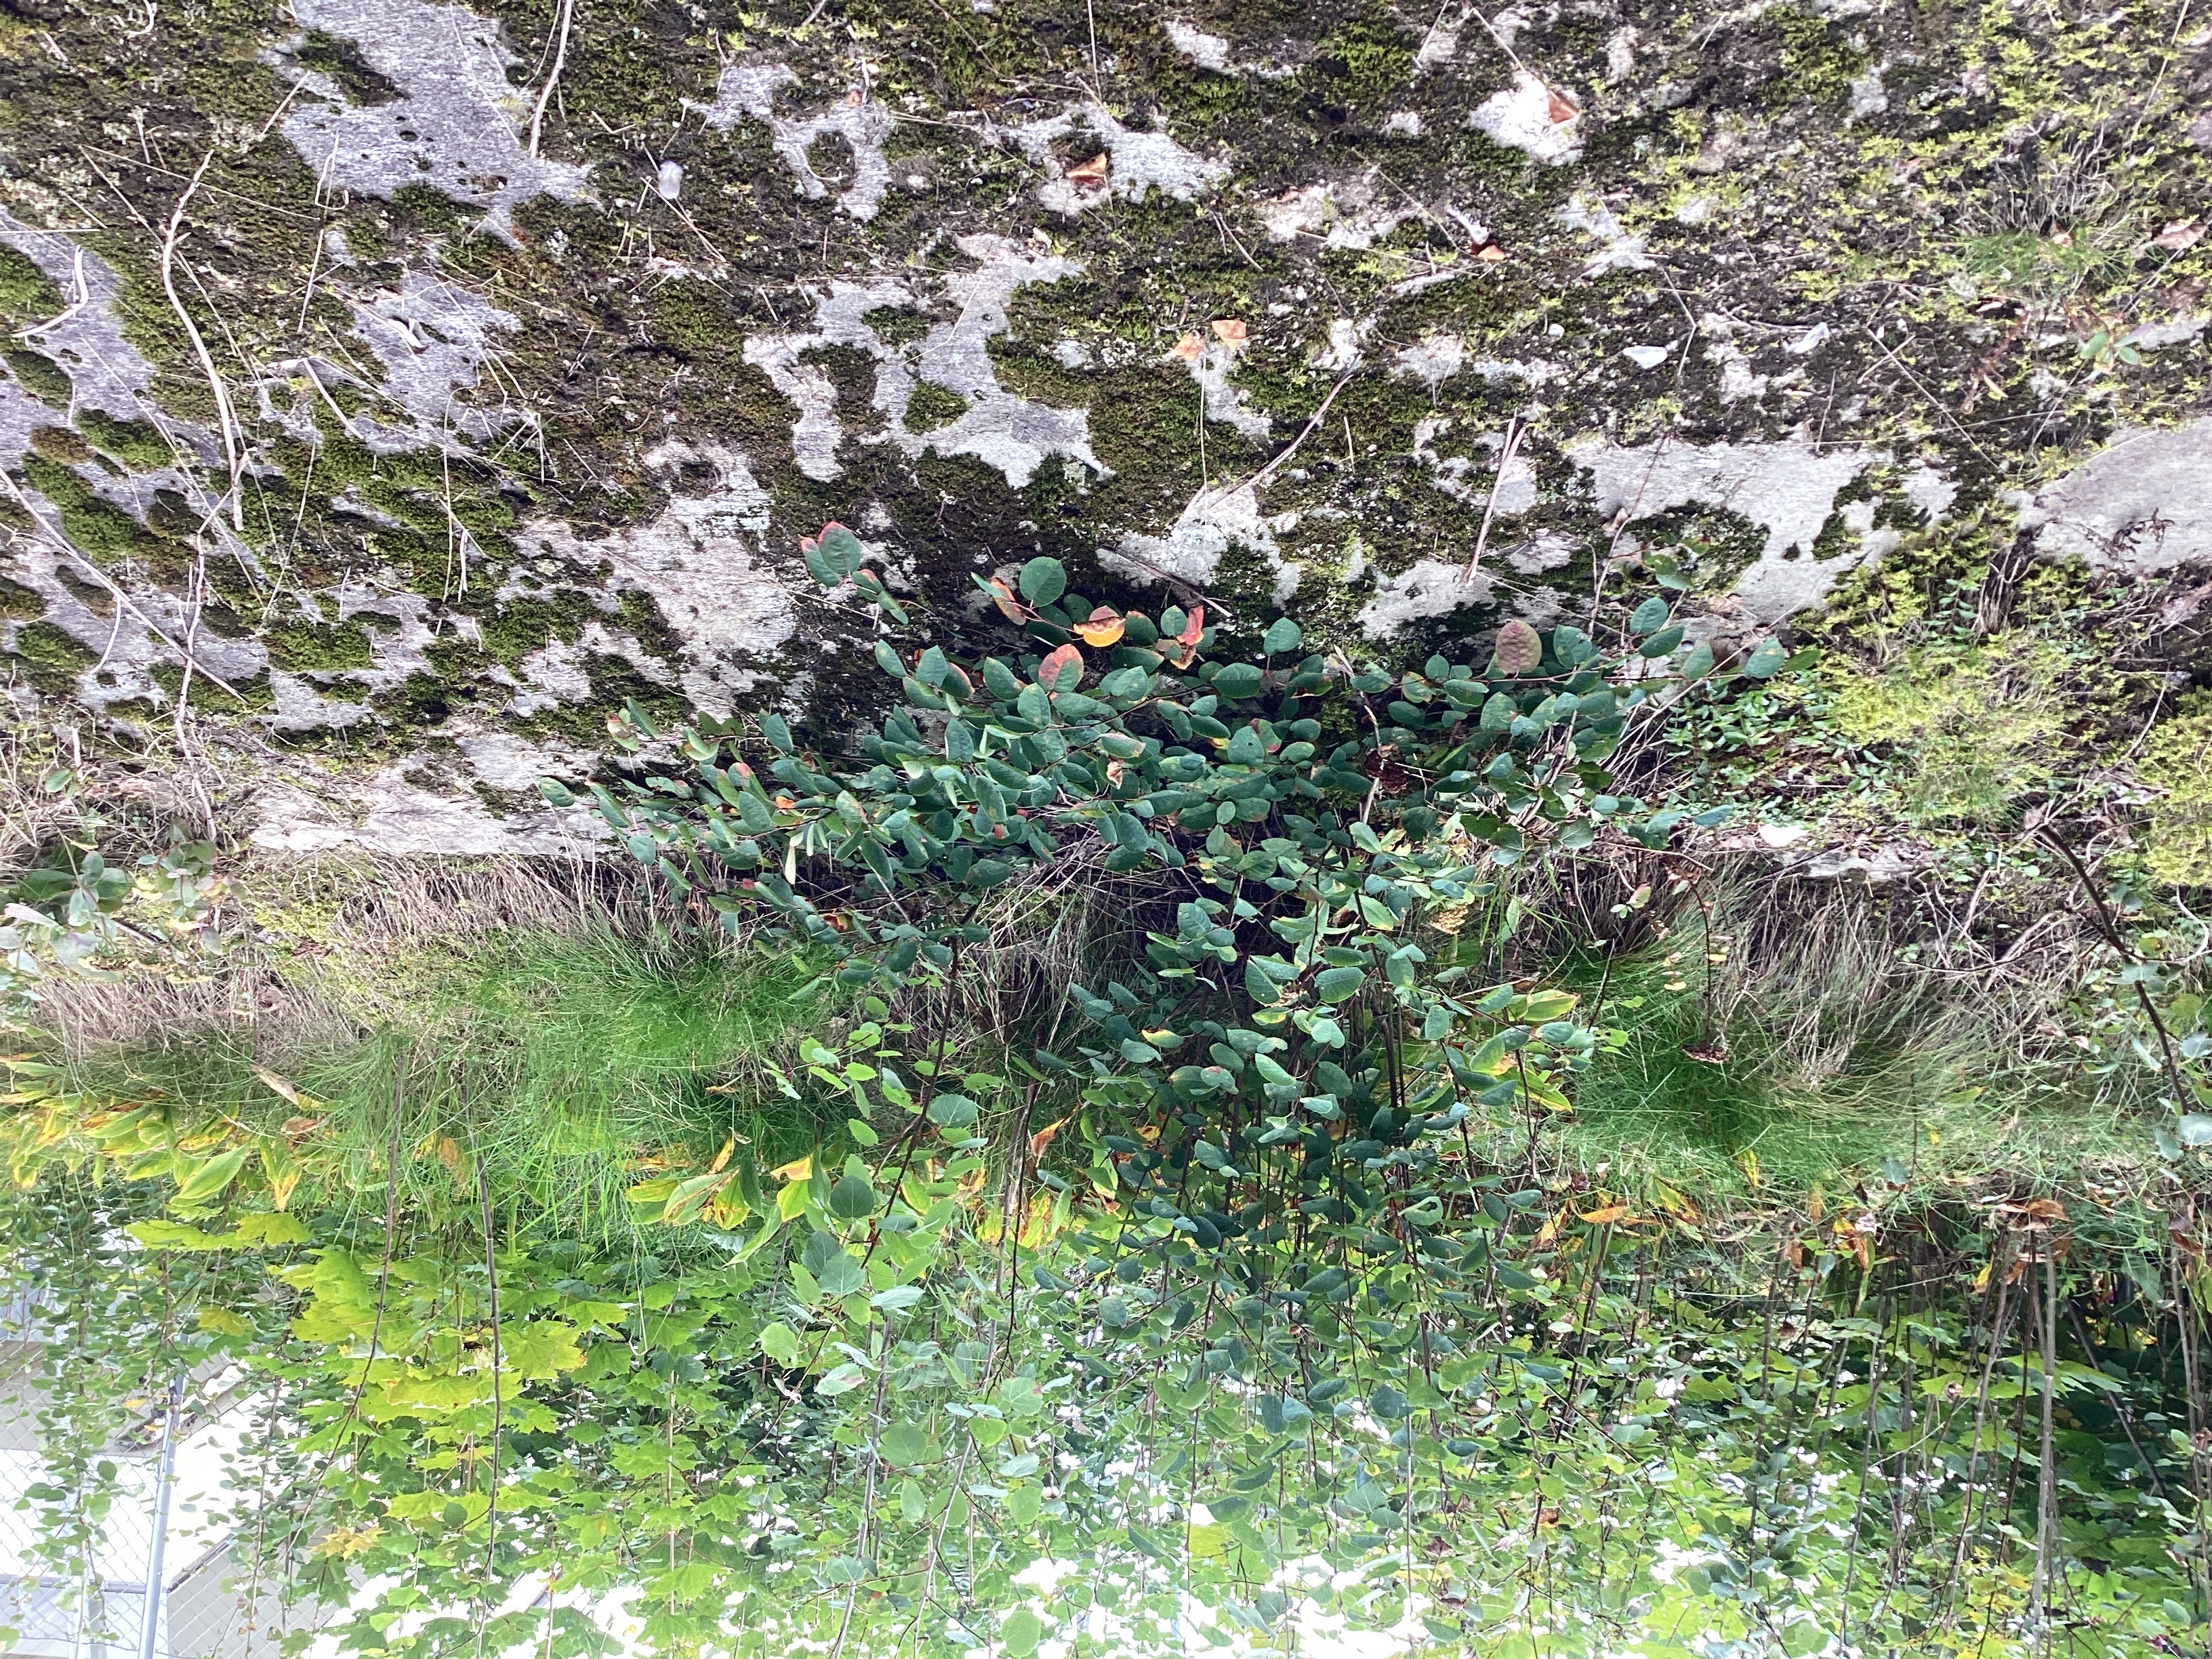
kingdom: Plantae
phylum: Tracheophyta
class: Magnoliopsida
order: Rosales
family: Rosaceae
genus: Amelanchier
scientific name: Amelanchier humilis
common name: blåhegg
